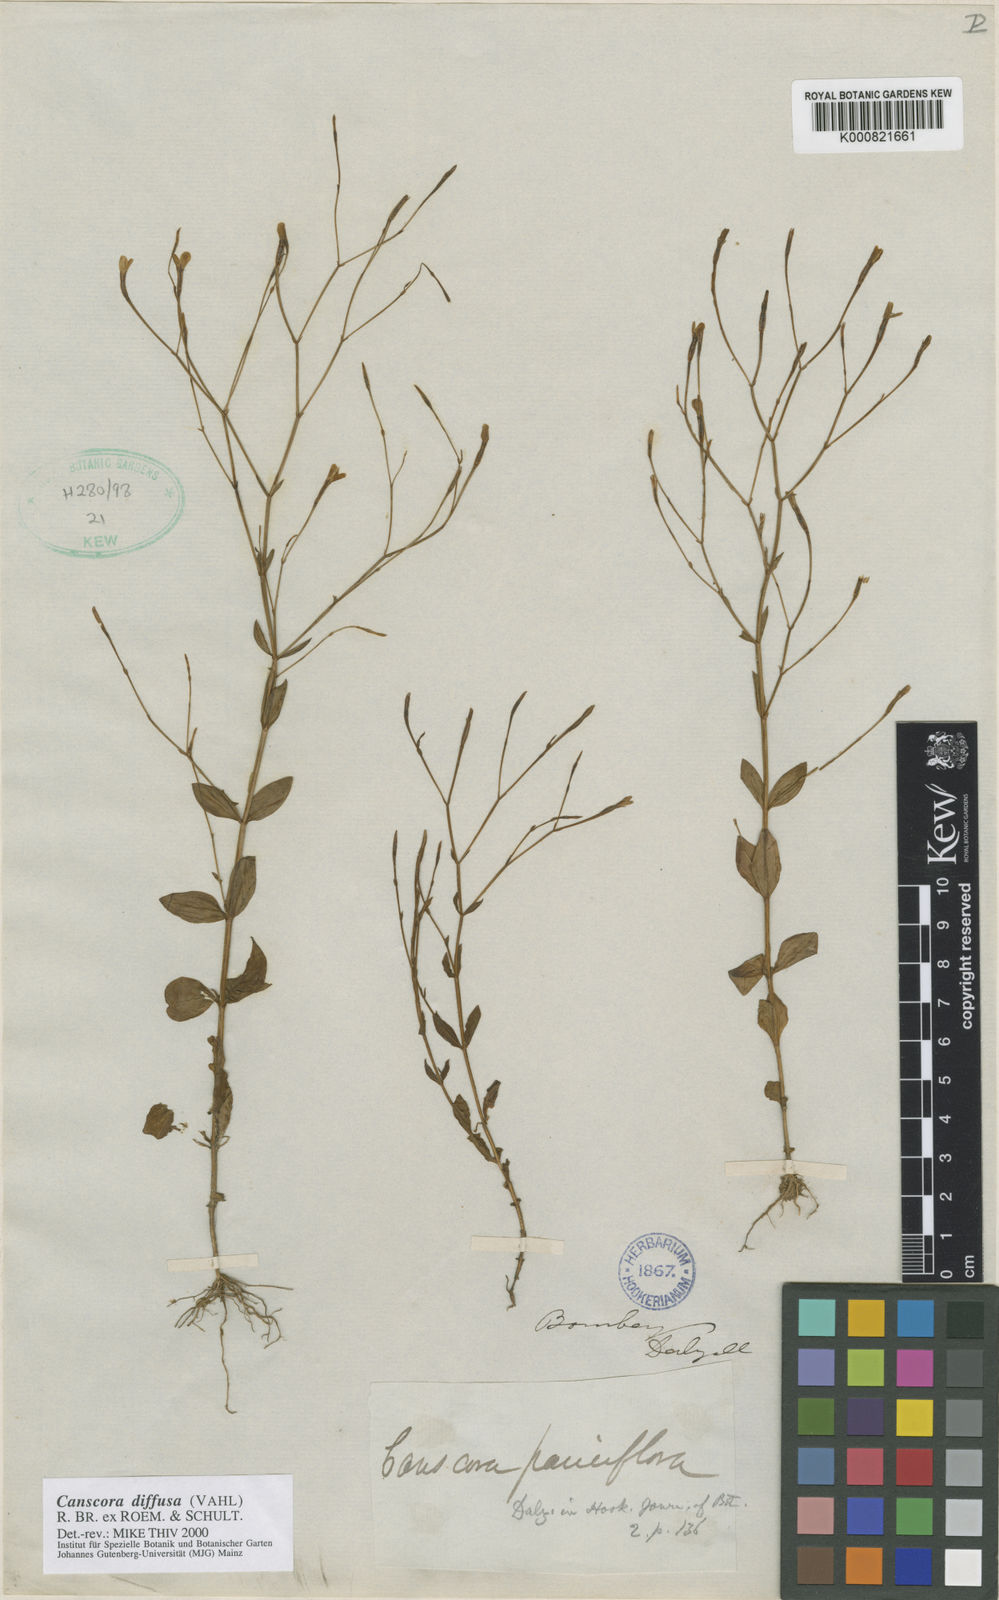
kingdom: Plantae
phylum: Tracheophyta
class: Magnoliopsida
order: Gentianales
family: Gentianaceae
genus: Canscora
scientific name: Canscora diffusa
